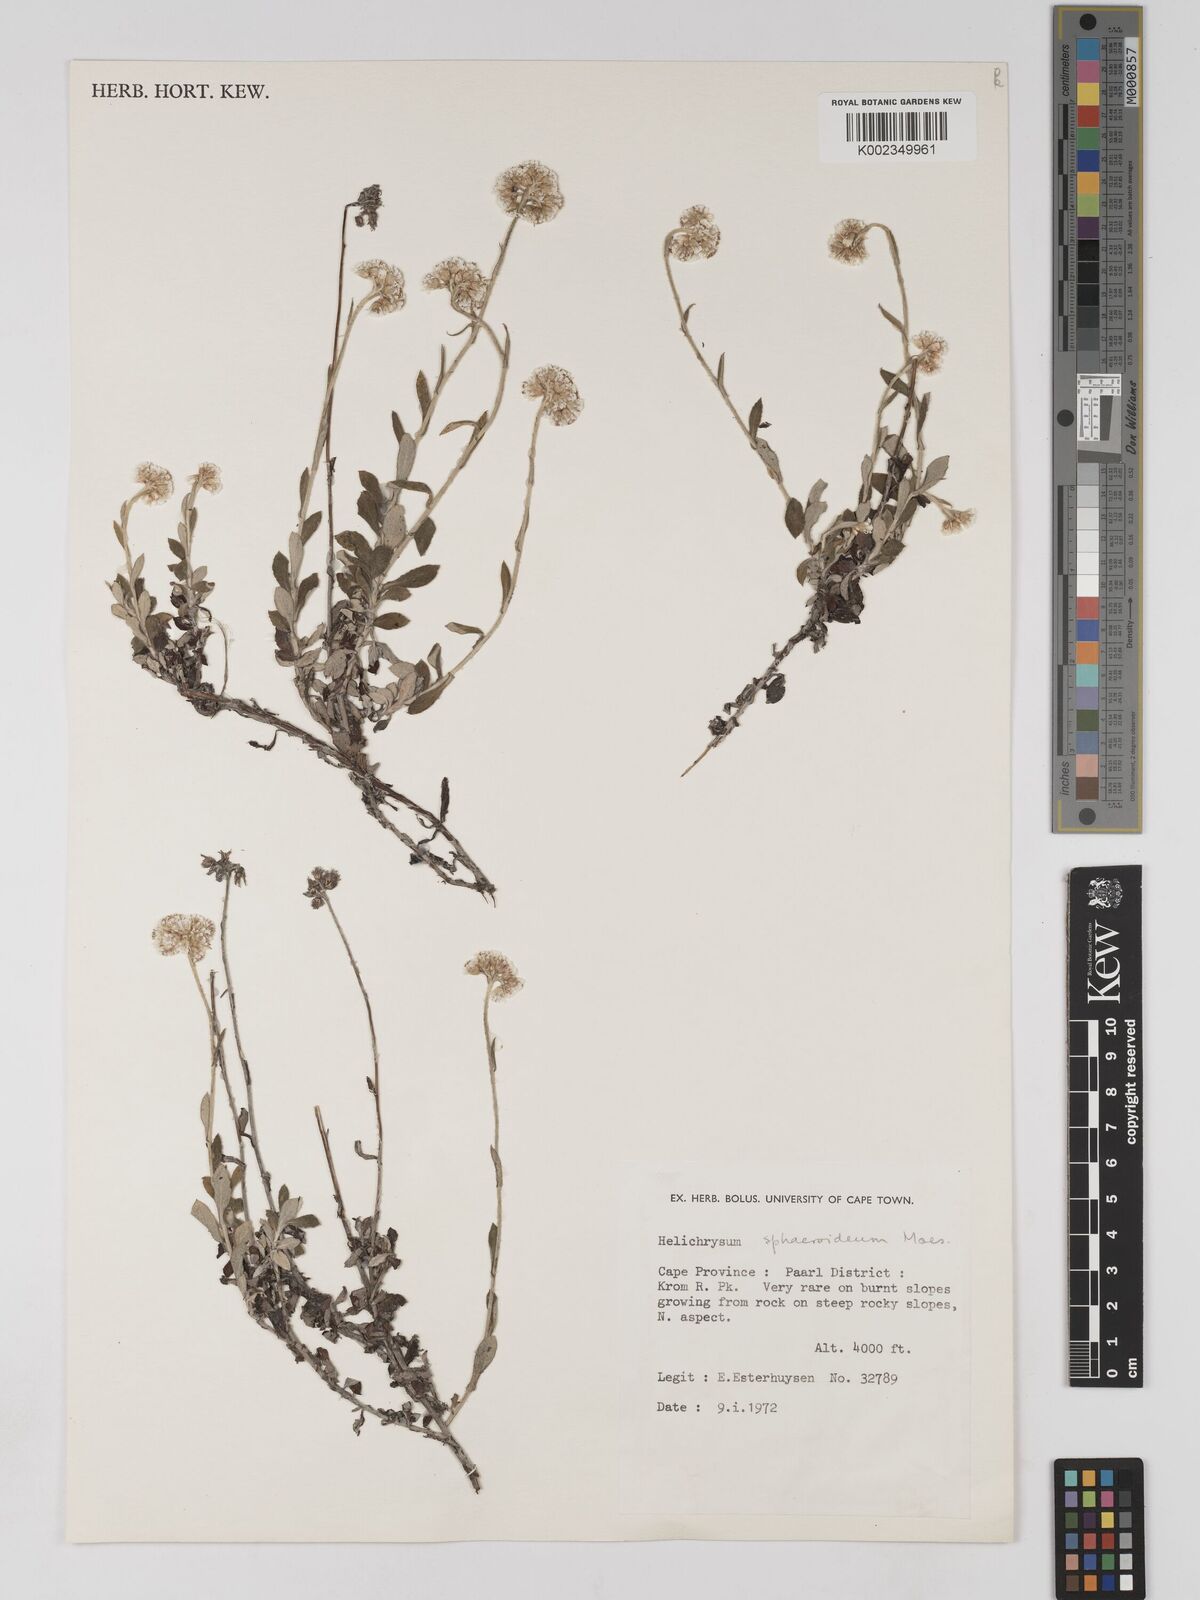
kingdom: Plantae
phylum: Tracheophyta
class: Magnoliopsida
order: Asterales
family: Asteraceae
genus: Helichrysum
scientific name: Helichrysum sphaeroideum
